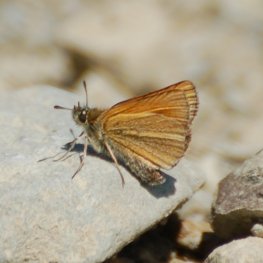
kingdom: Animalia
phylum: Arthropoda
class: Insecta
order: Lepidoptera
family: Hesperiidae
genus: Thymelicus
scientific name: Thymelicus lineola
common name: European Skipper
